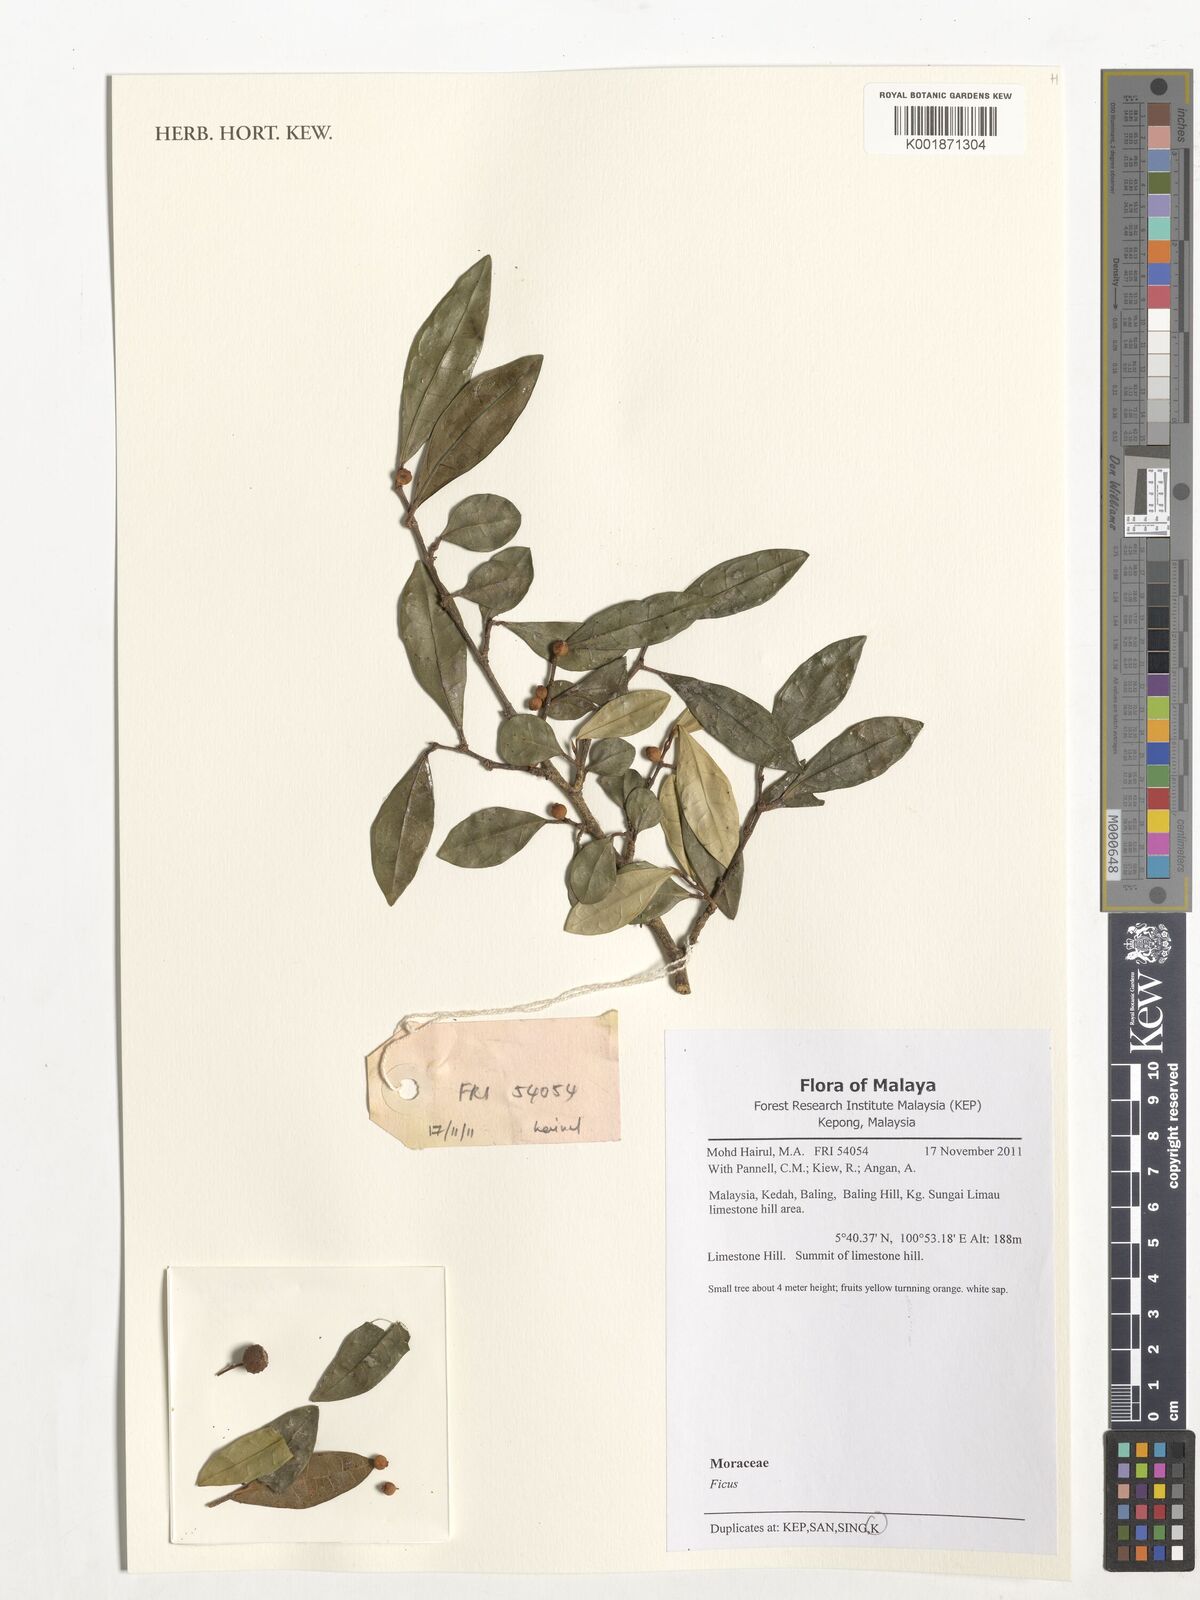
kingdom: Plantae
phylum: Tracheophyta
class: Magnoliopsida
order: Rosales
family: Moraceae
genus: Ficus
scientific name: Ficus
